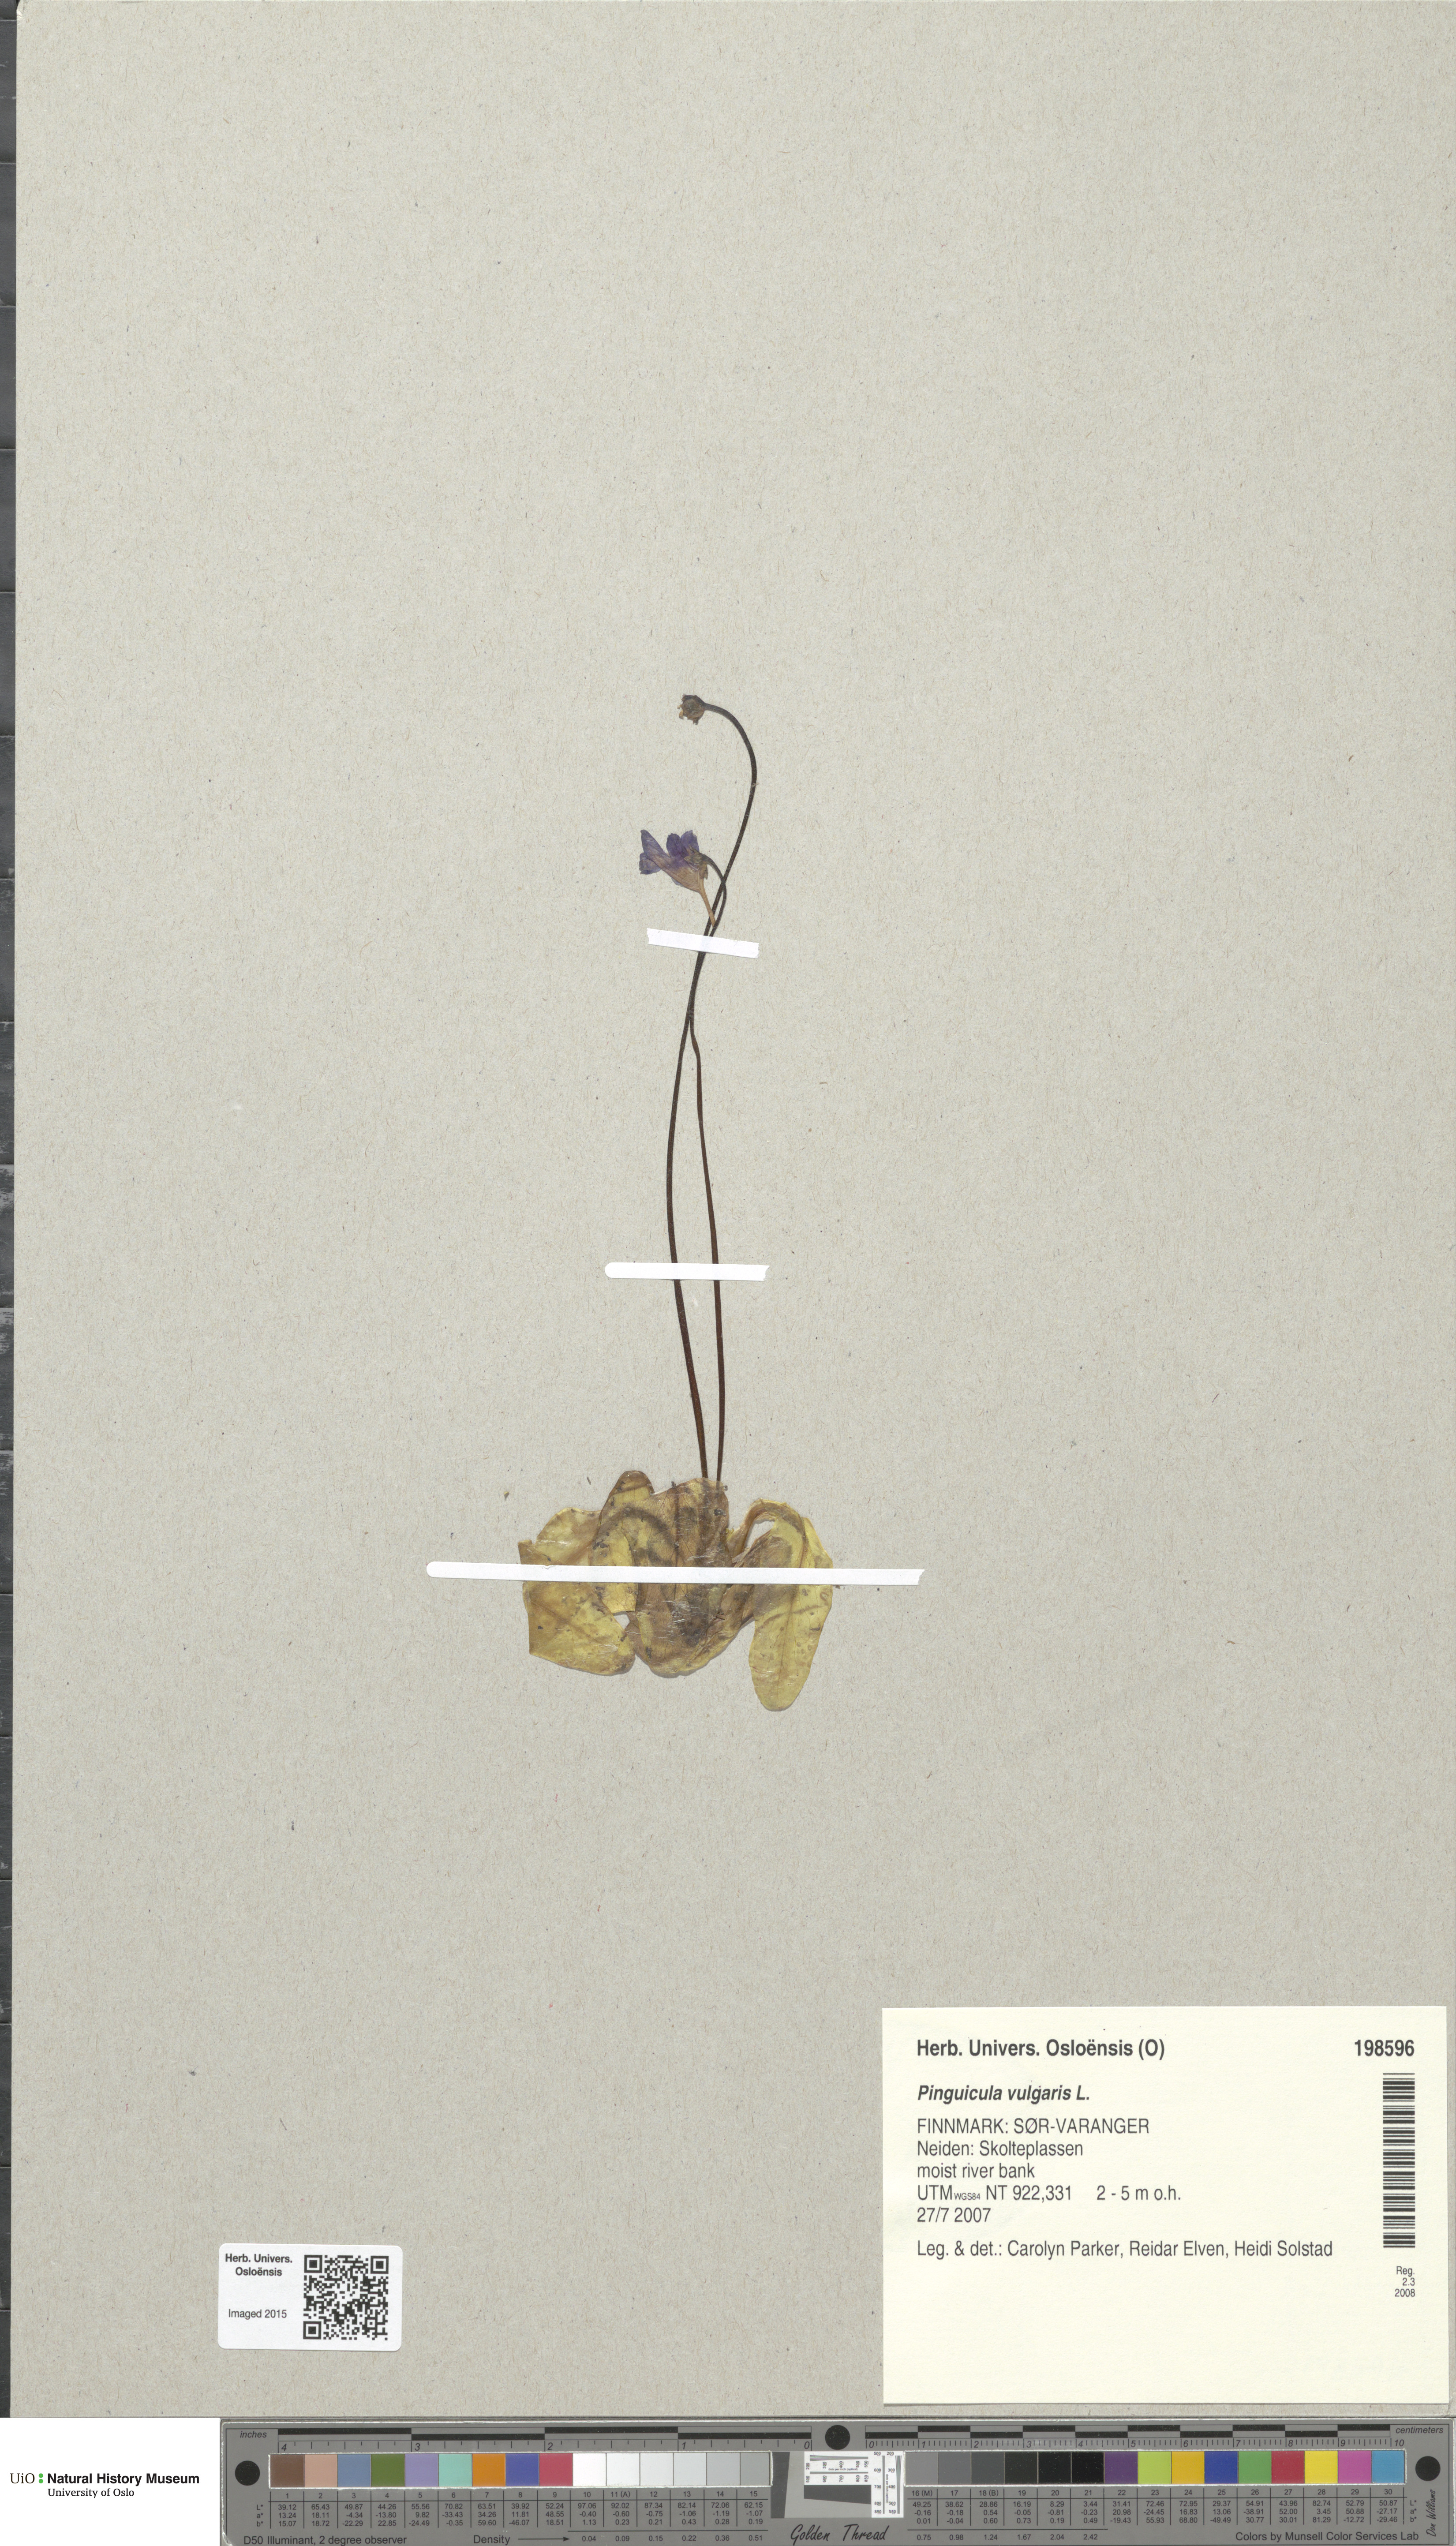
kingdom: Plantae
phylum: Tracheophyta
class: Magnoliopsida
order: Lamiales
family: Lentibulariaceae
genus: Pinguicula
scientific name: Pinguicula vulgaris
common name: Common butterwort
